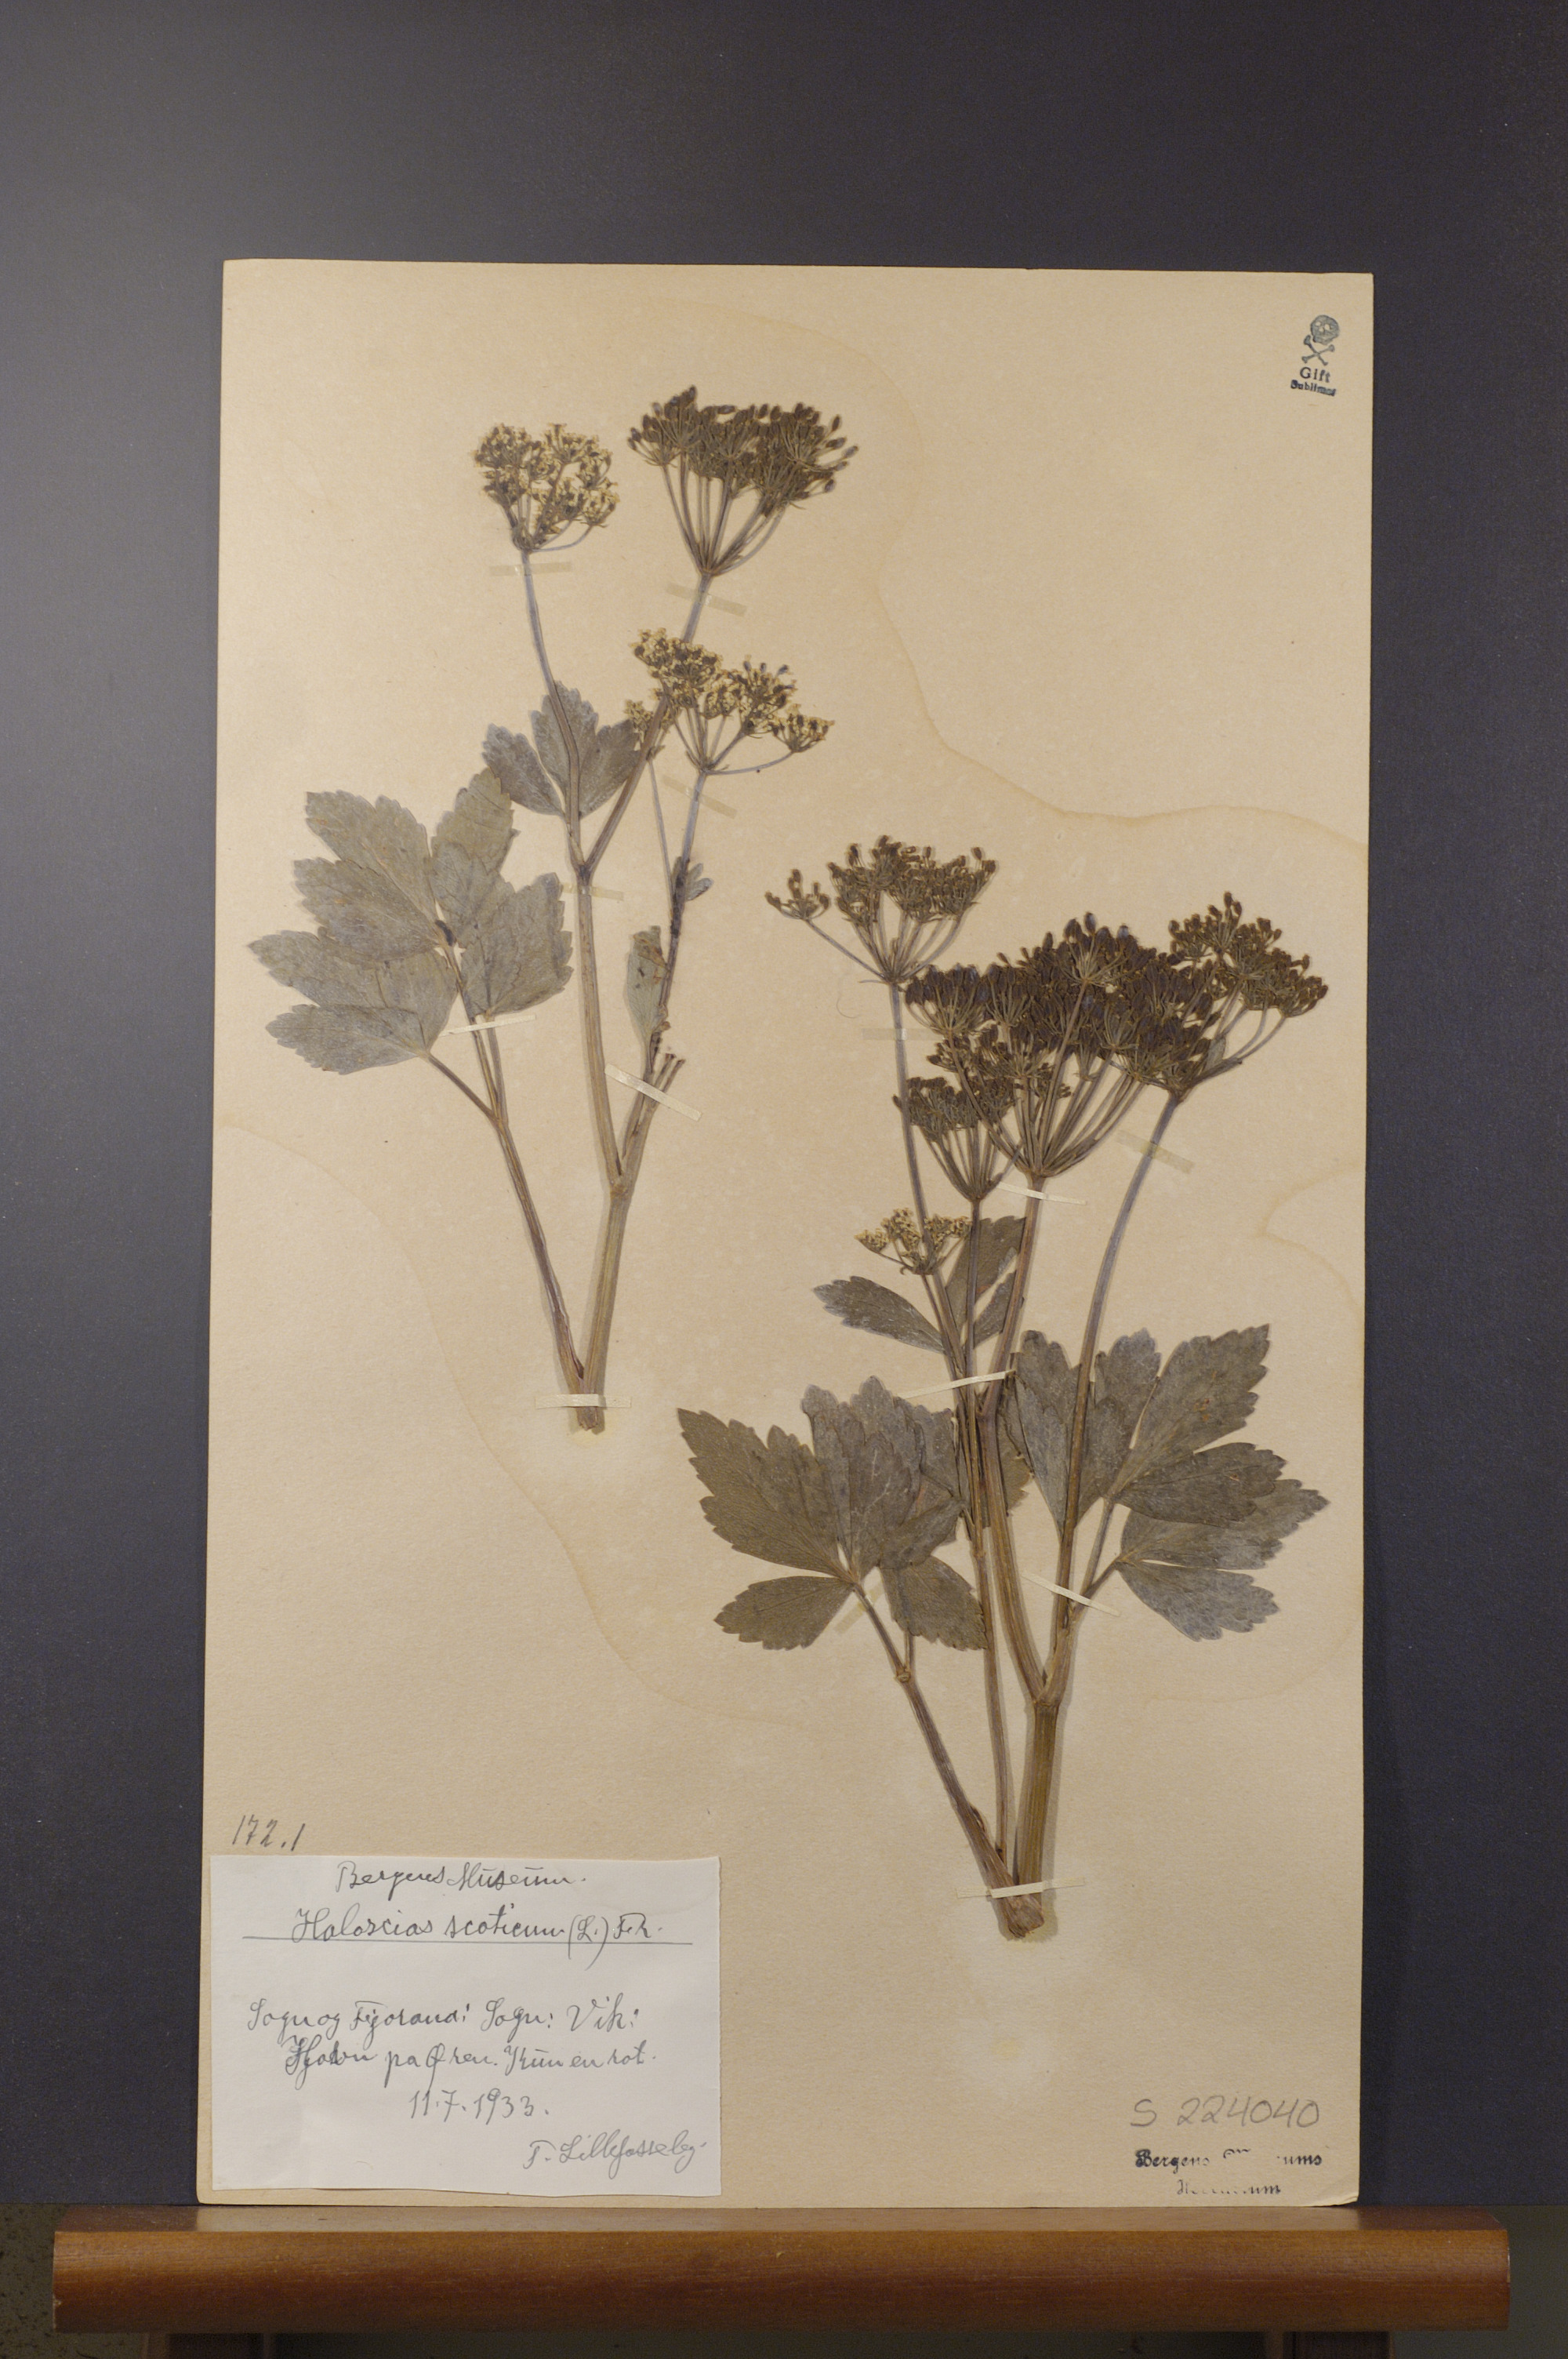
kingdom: Plantae
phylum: Tracheophyta
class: Magnoliopsida
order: Apiales
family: Apiaceae
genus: Ligusticum
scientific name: Ligusticum scothicum
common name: Beach lovage
